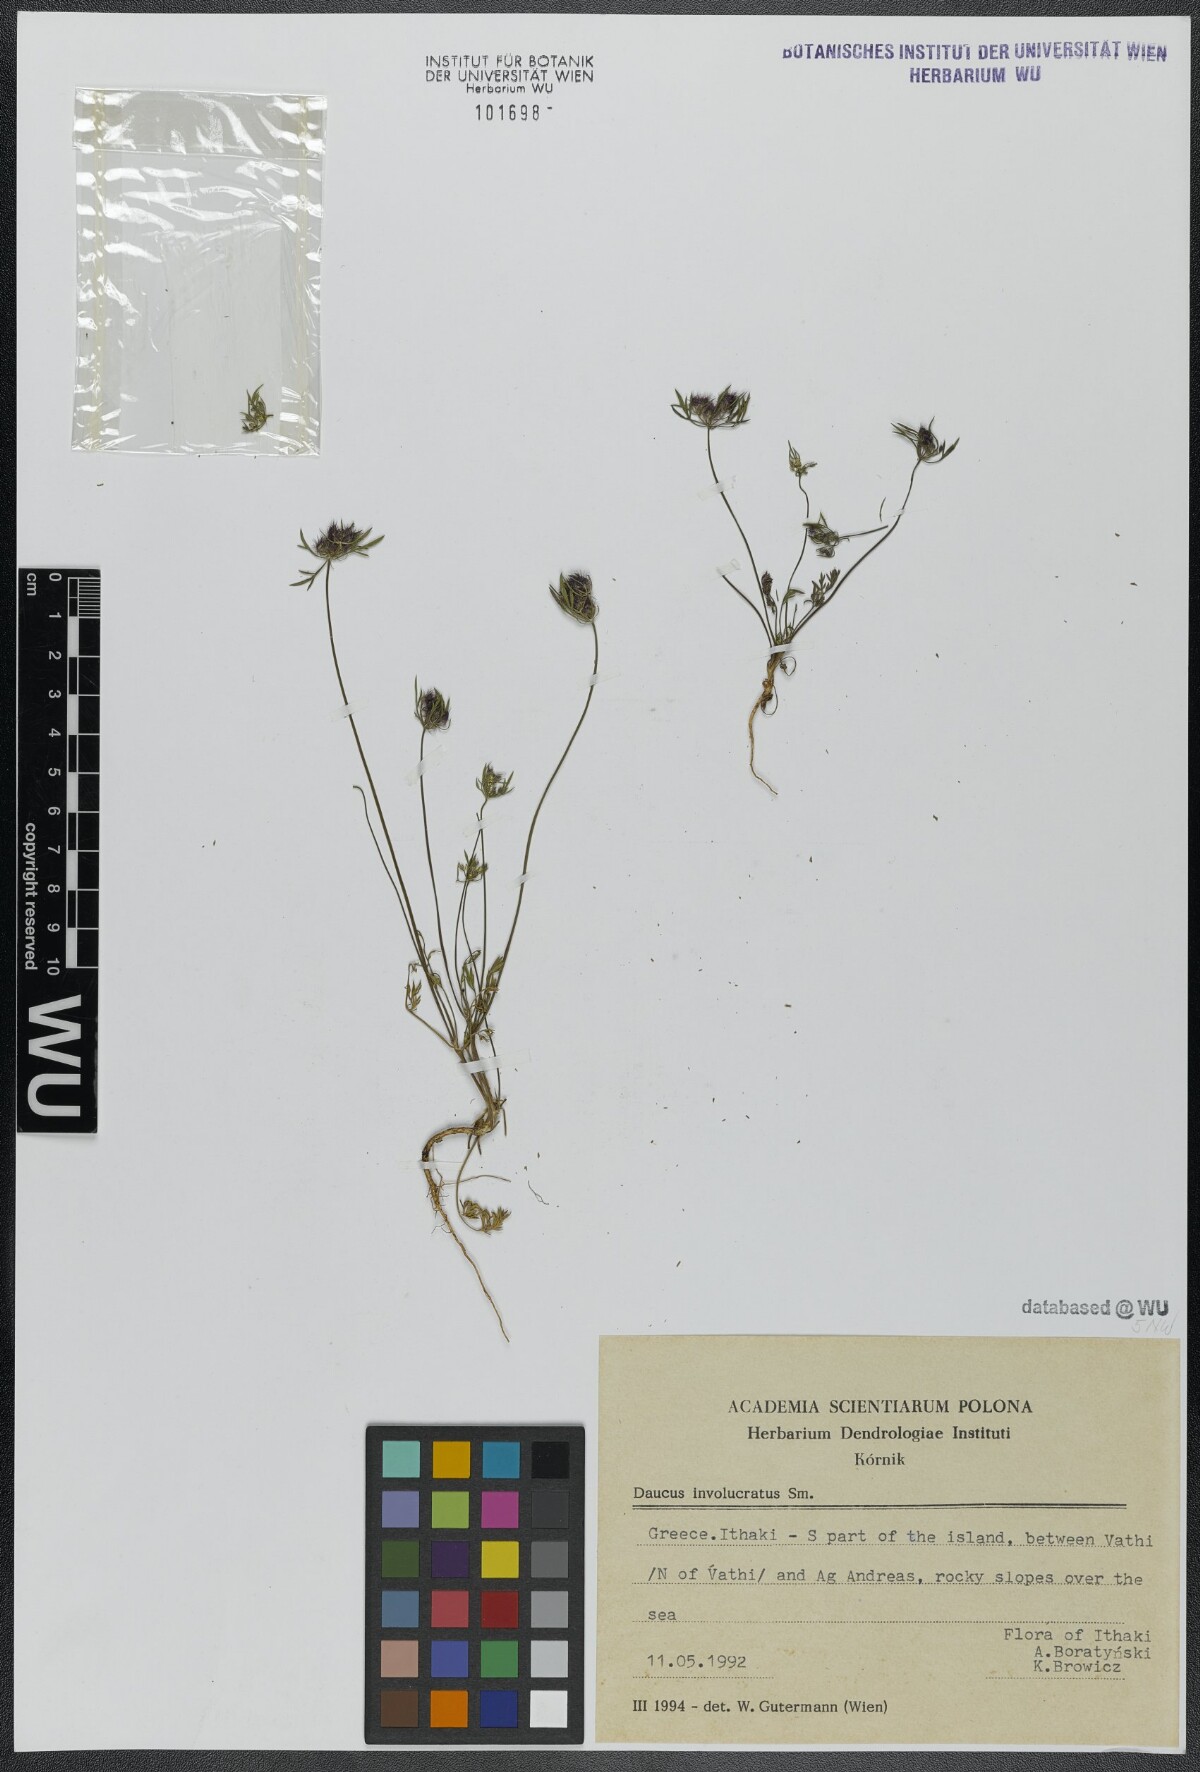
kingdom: Plantae
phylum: Tracheophyta
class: Magnoliopsida
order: Apiales
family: Apiaceae
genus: Daucus
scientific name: Daucus involucratus
